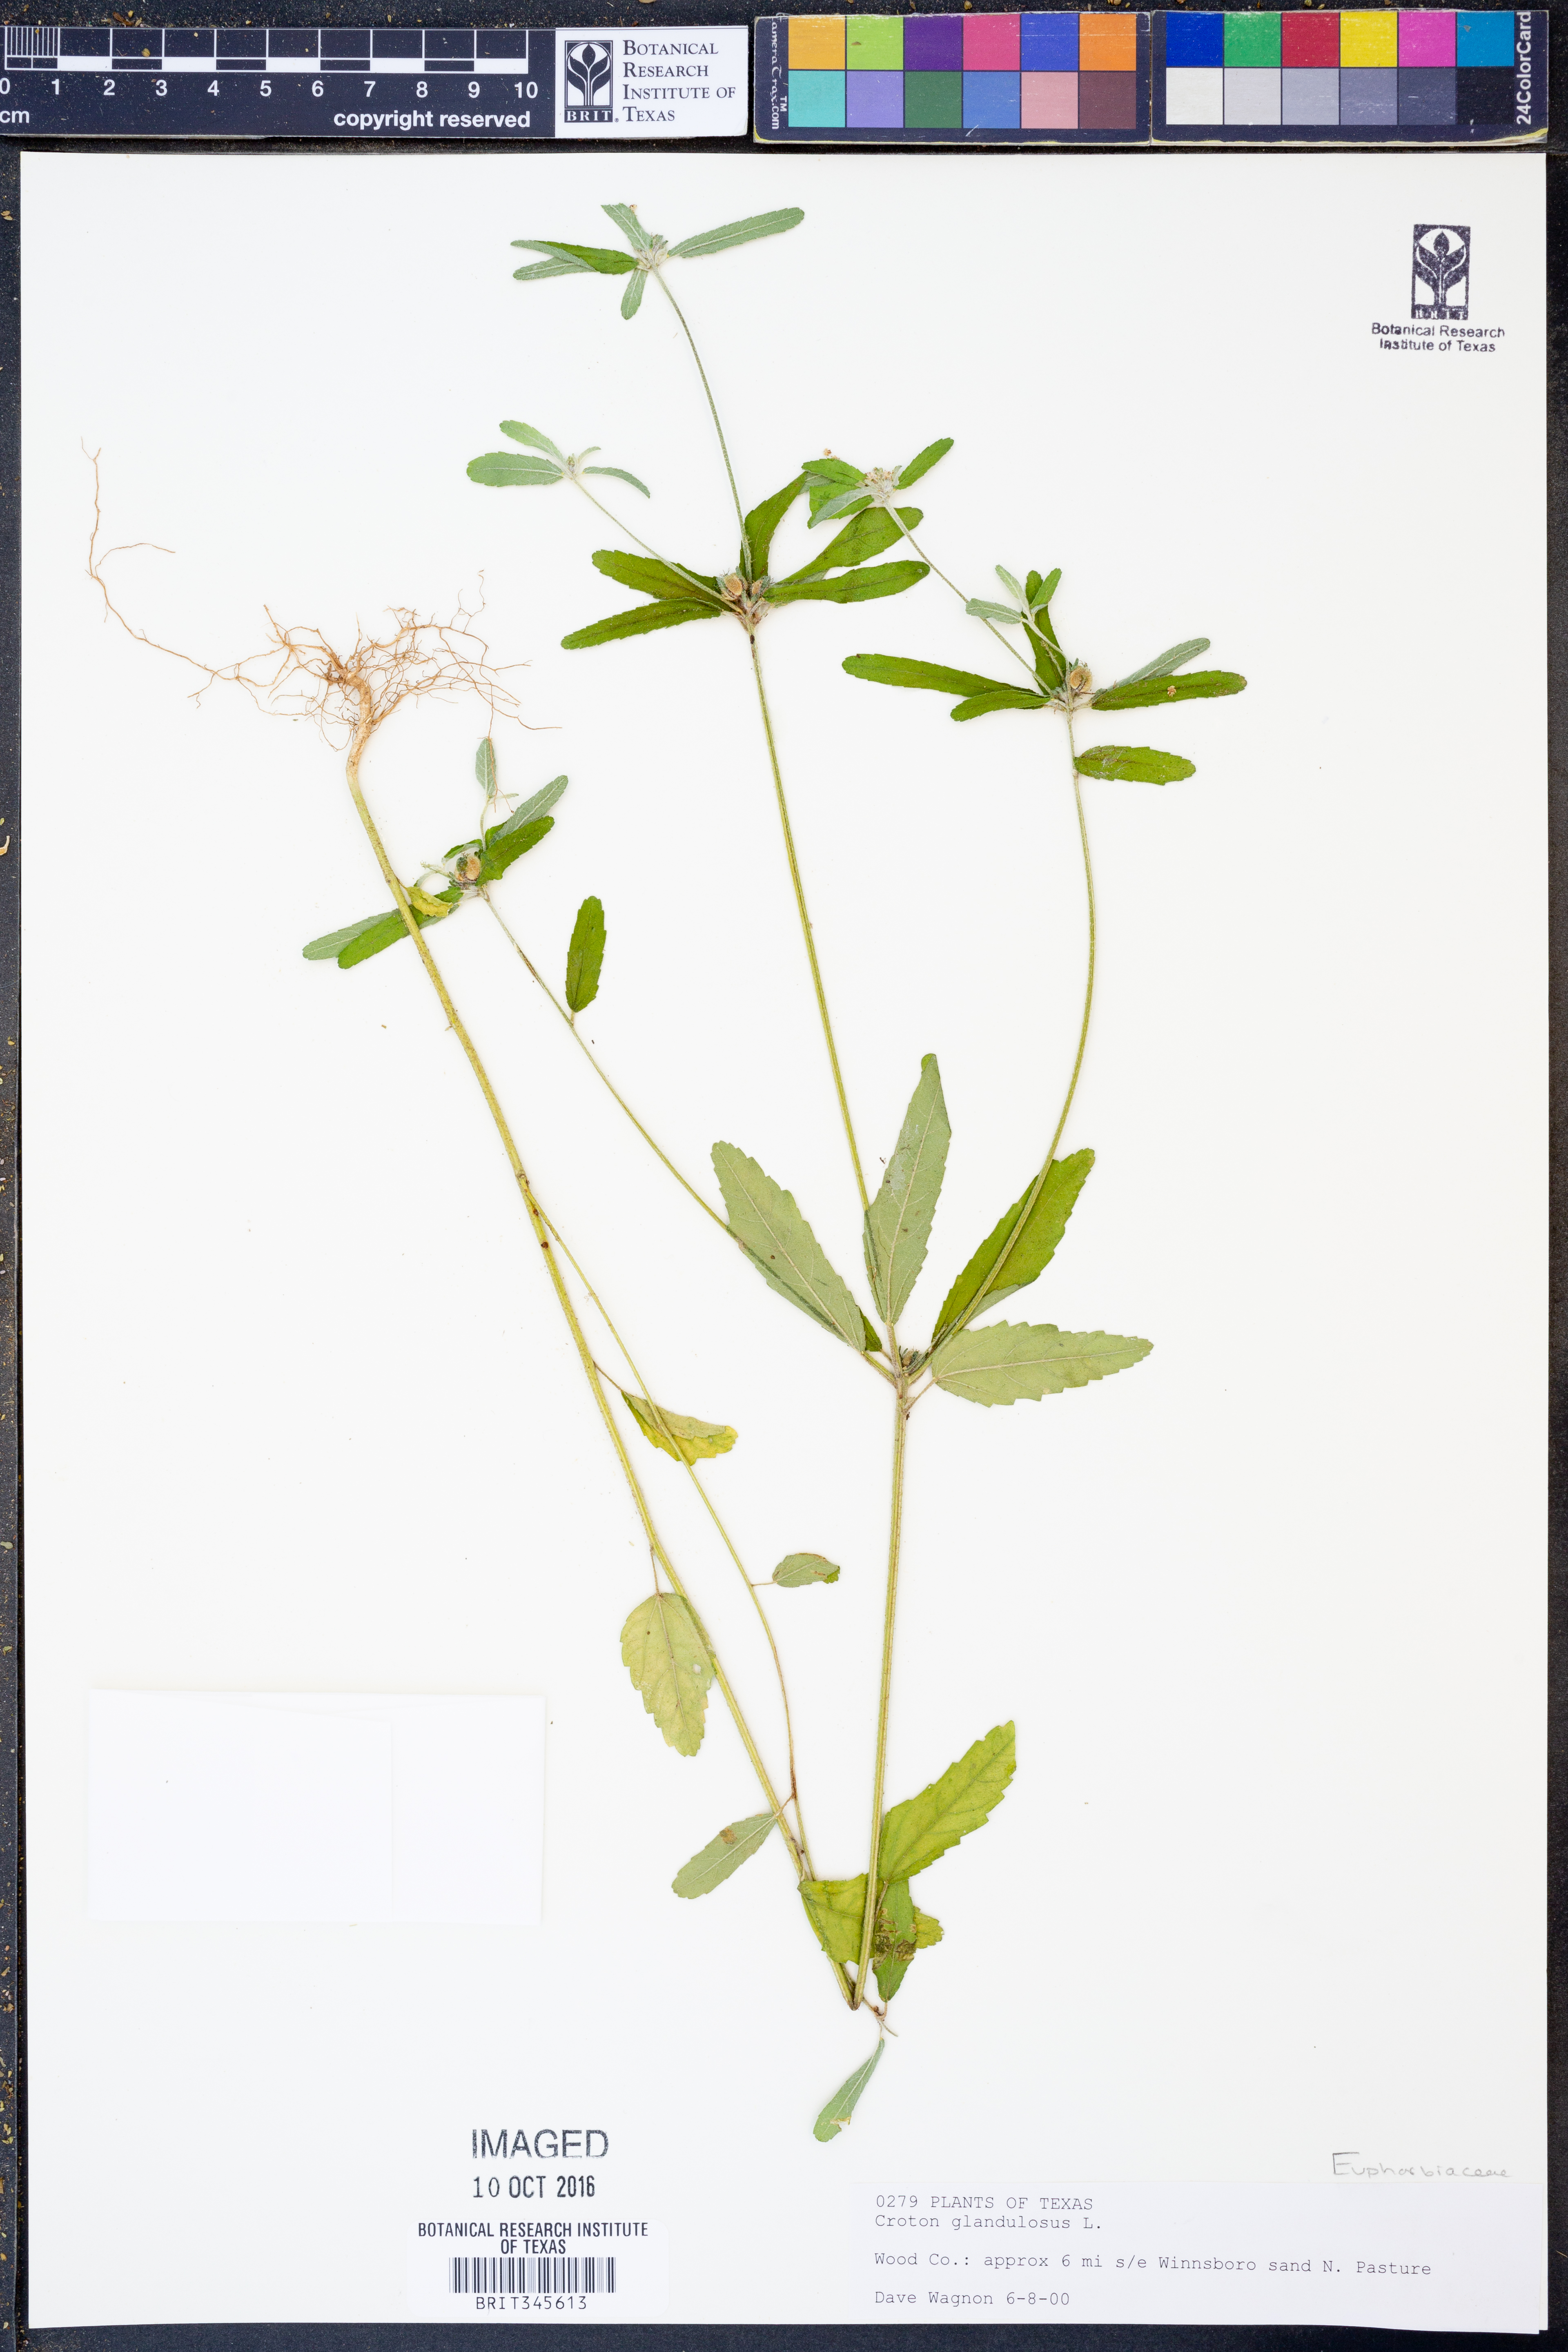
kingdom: Plantae
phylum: Tracheophyta
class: Magnoliopsida
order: Malpighiales
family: Euphorbiaceae
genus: Croton
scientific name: Croton glandulosus
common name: Tropic croton
